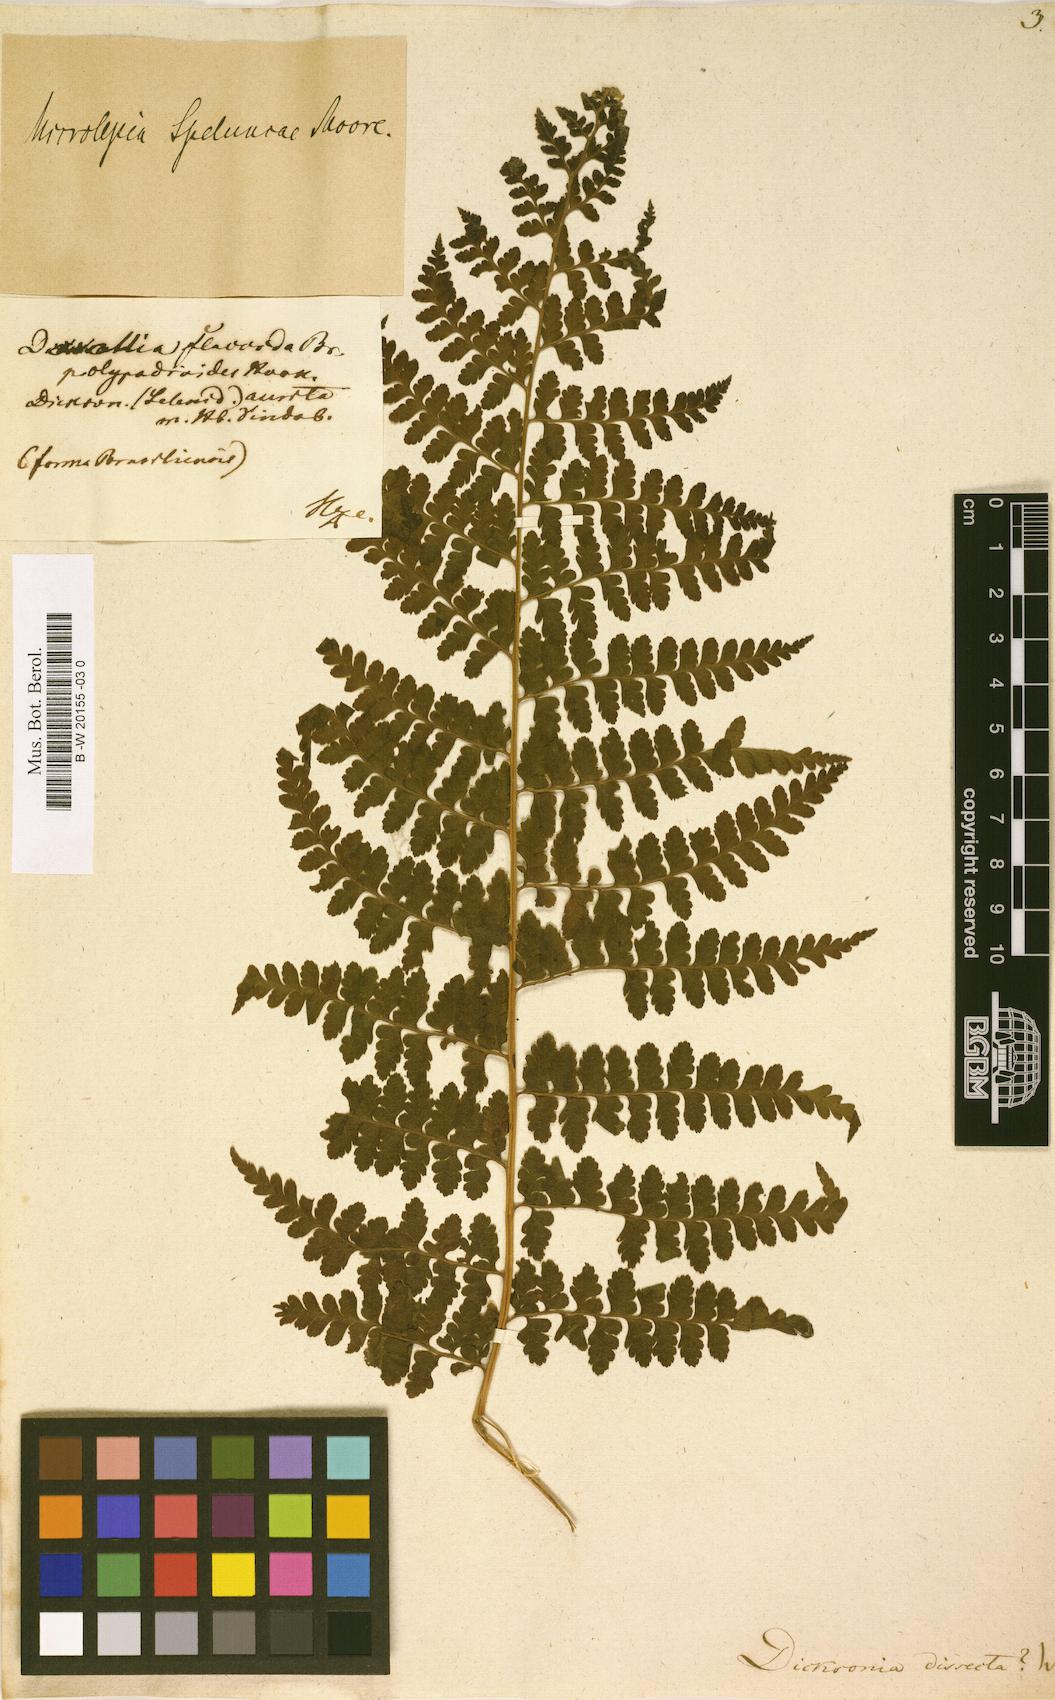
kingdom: Plantae
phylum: Tracheophyta
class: Polypodiopsida
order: Polypodiales
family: Dennstaedtiaceae
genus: Dennstaedtia
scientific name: Dennstaedtia dissecta
